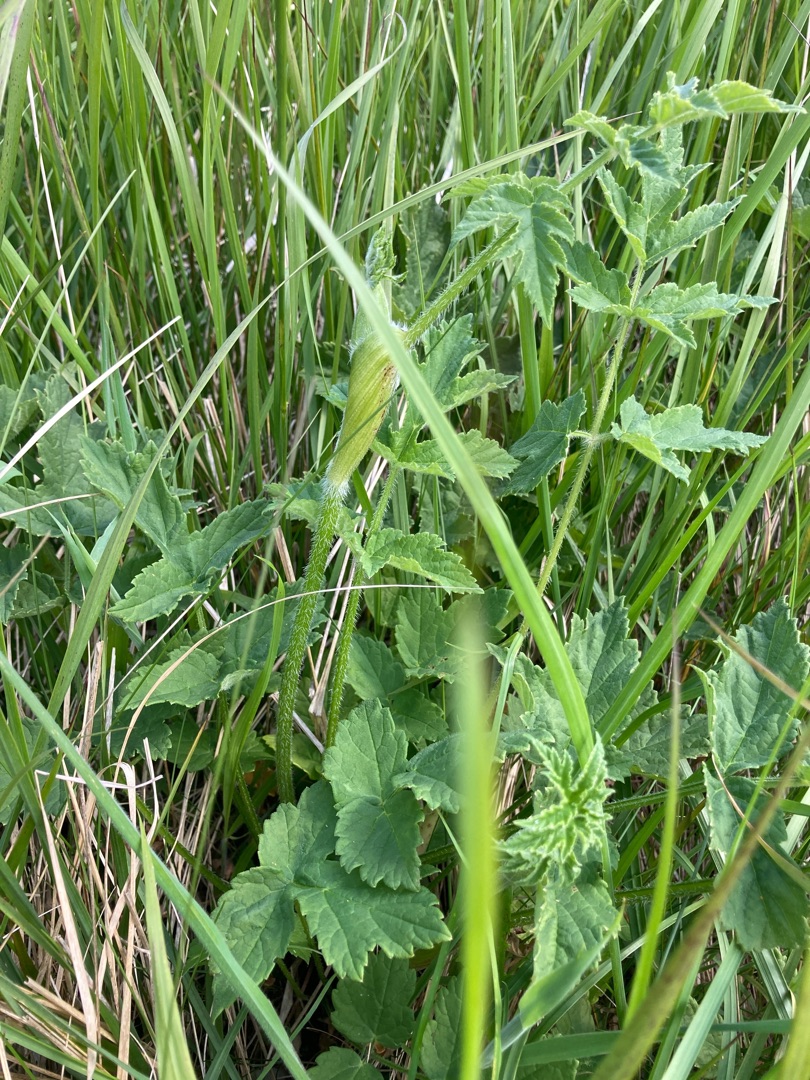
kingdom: Plantae
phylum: Tracheophyta
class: Magnoliopsida
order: Apiales
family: Apiaceae
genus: Heracleum
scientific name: Heracleum sphondylium
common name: Almindelig bjørneklo
